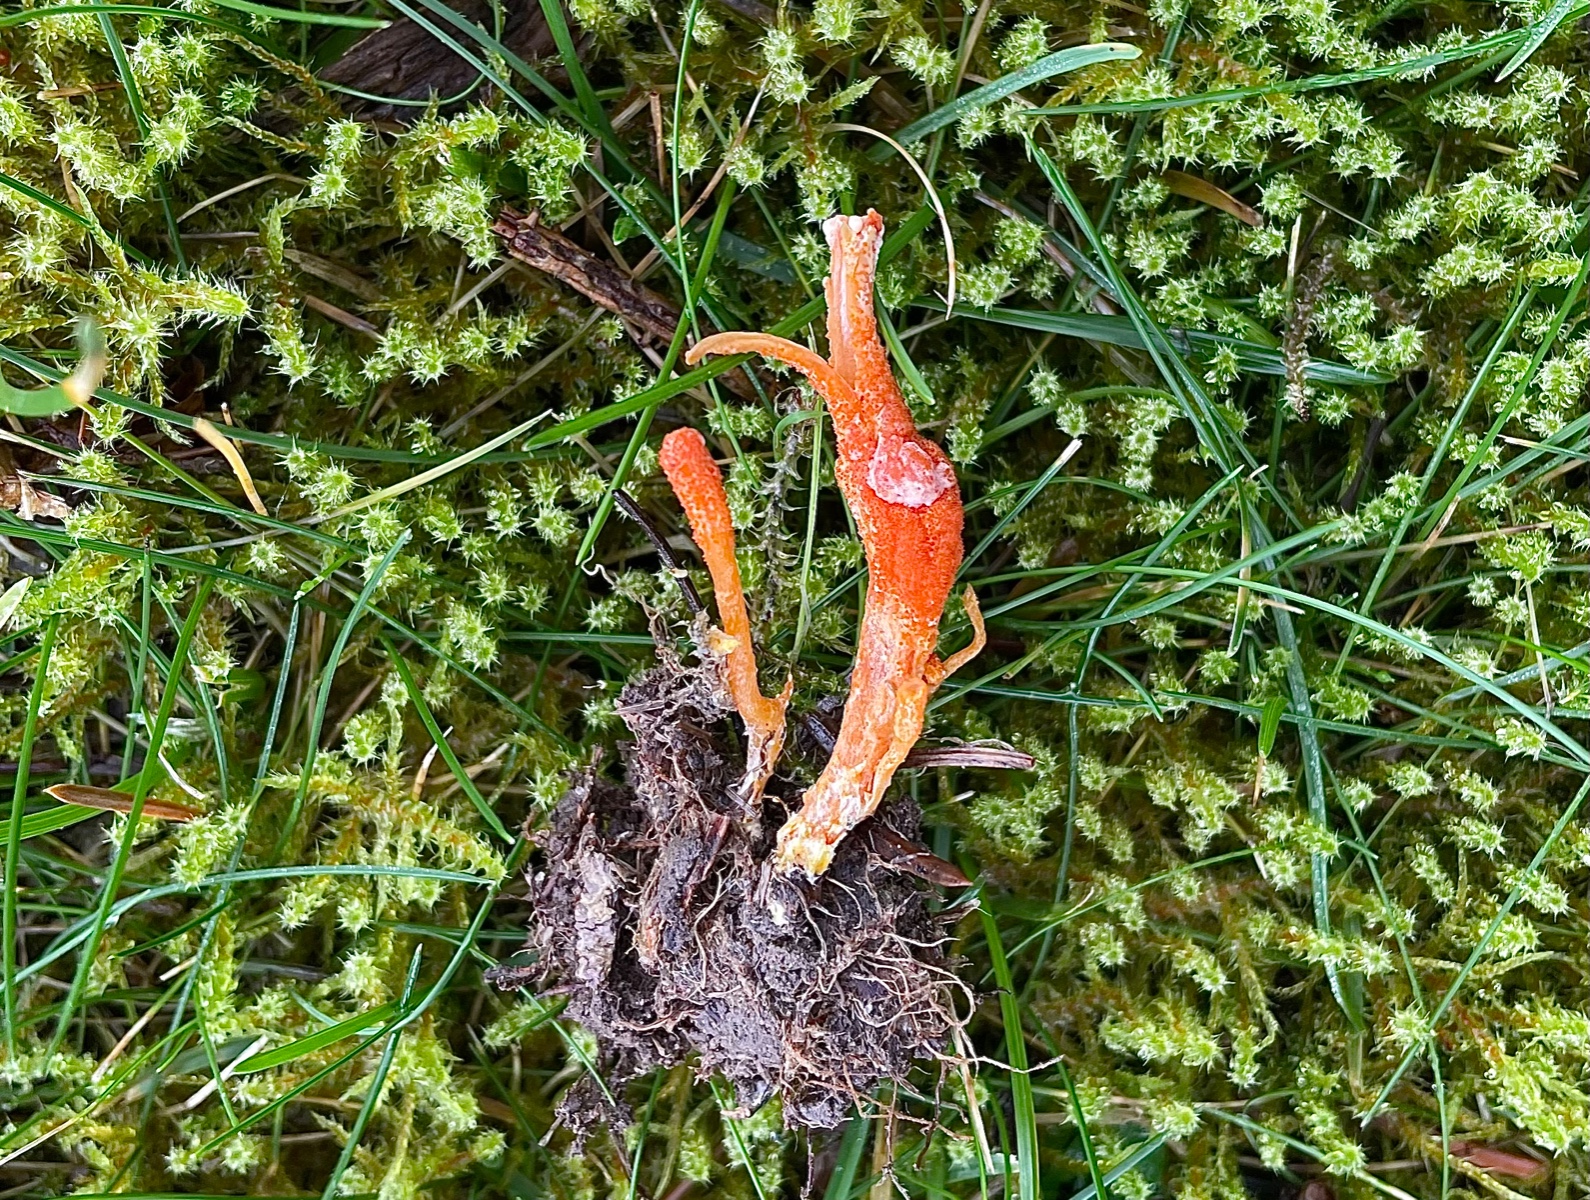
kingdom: Fungi
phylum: Ascomycota
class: Sordariomycetes
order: Hypocreales
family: Cordycipitaceae
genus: Cordyceps
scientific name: Cordyceps militaris
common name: puppe-snyltekølle
